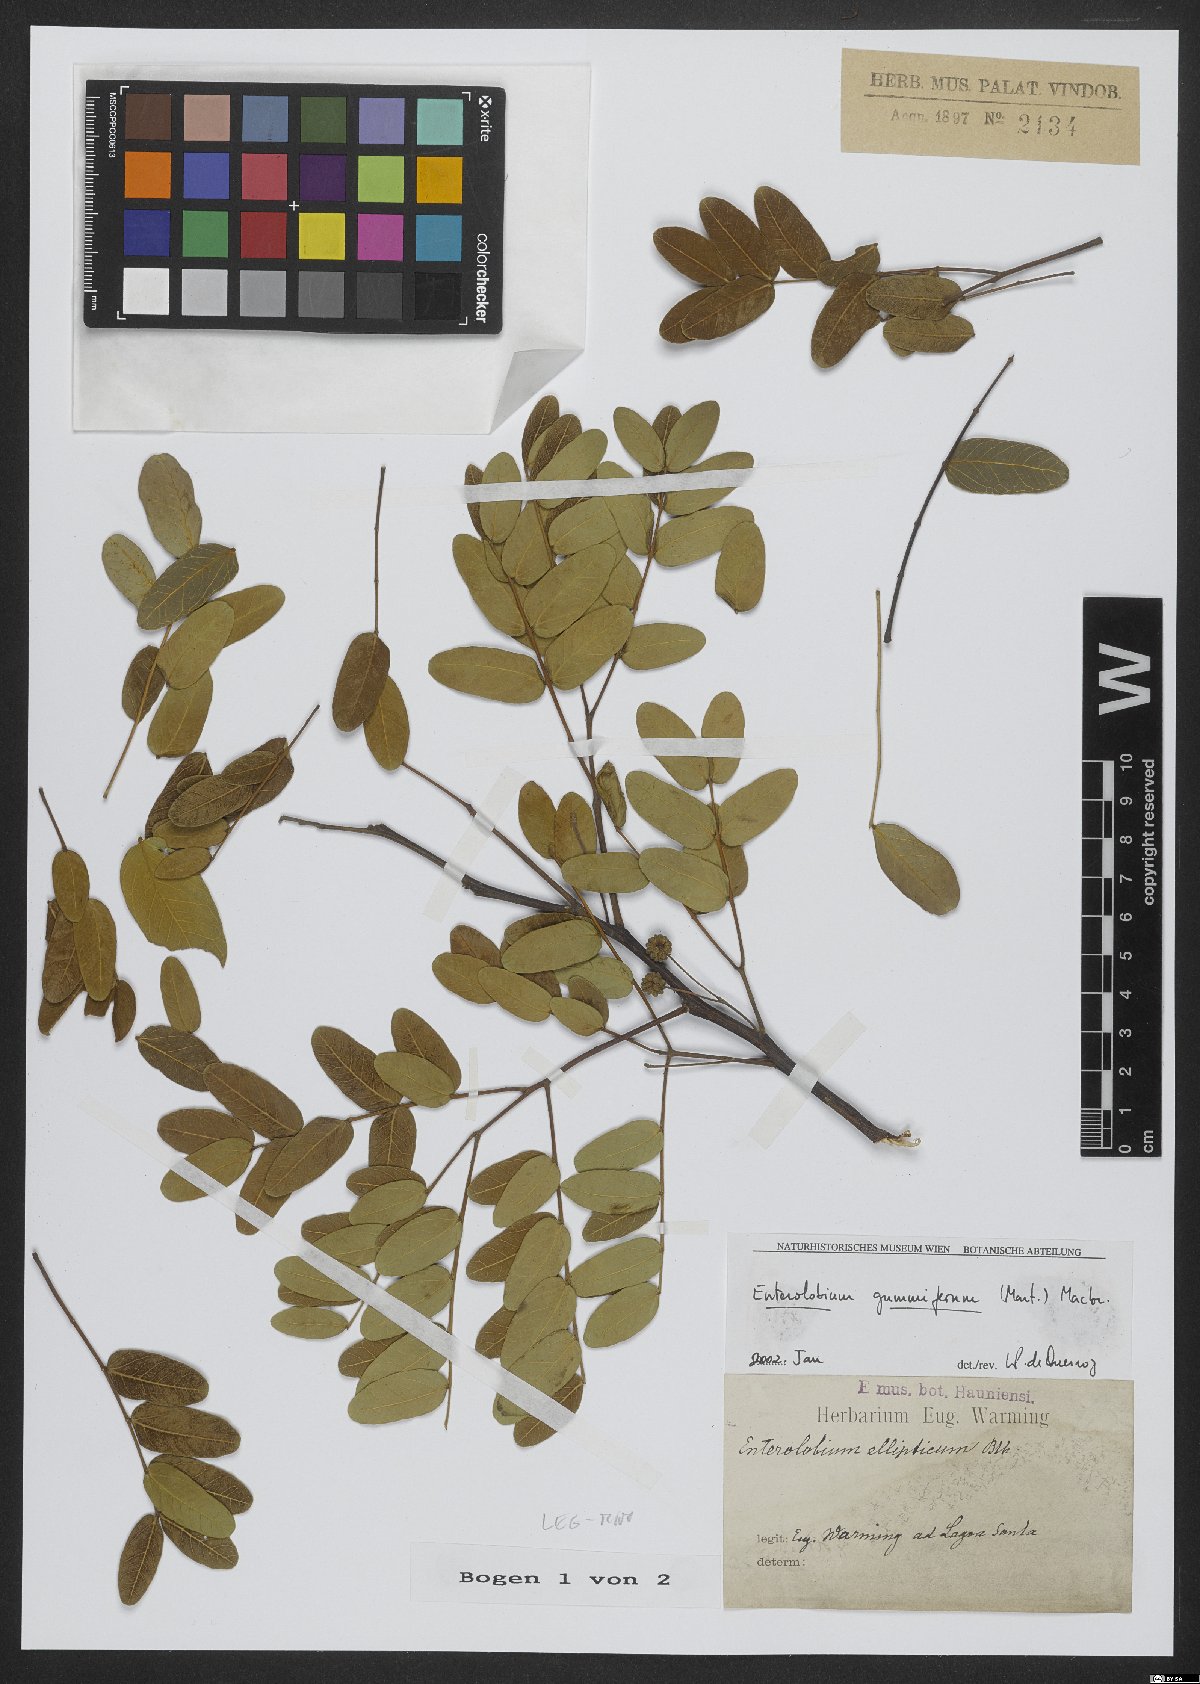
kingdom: Plantae
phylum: Tracheophyta
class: Magnoliopsida
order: Fabales
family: Fabaceae
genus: Enterolobium
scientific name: Enterolobium gummiferum
